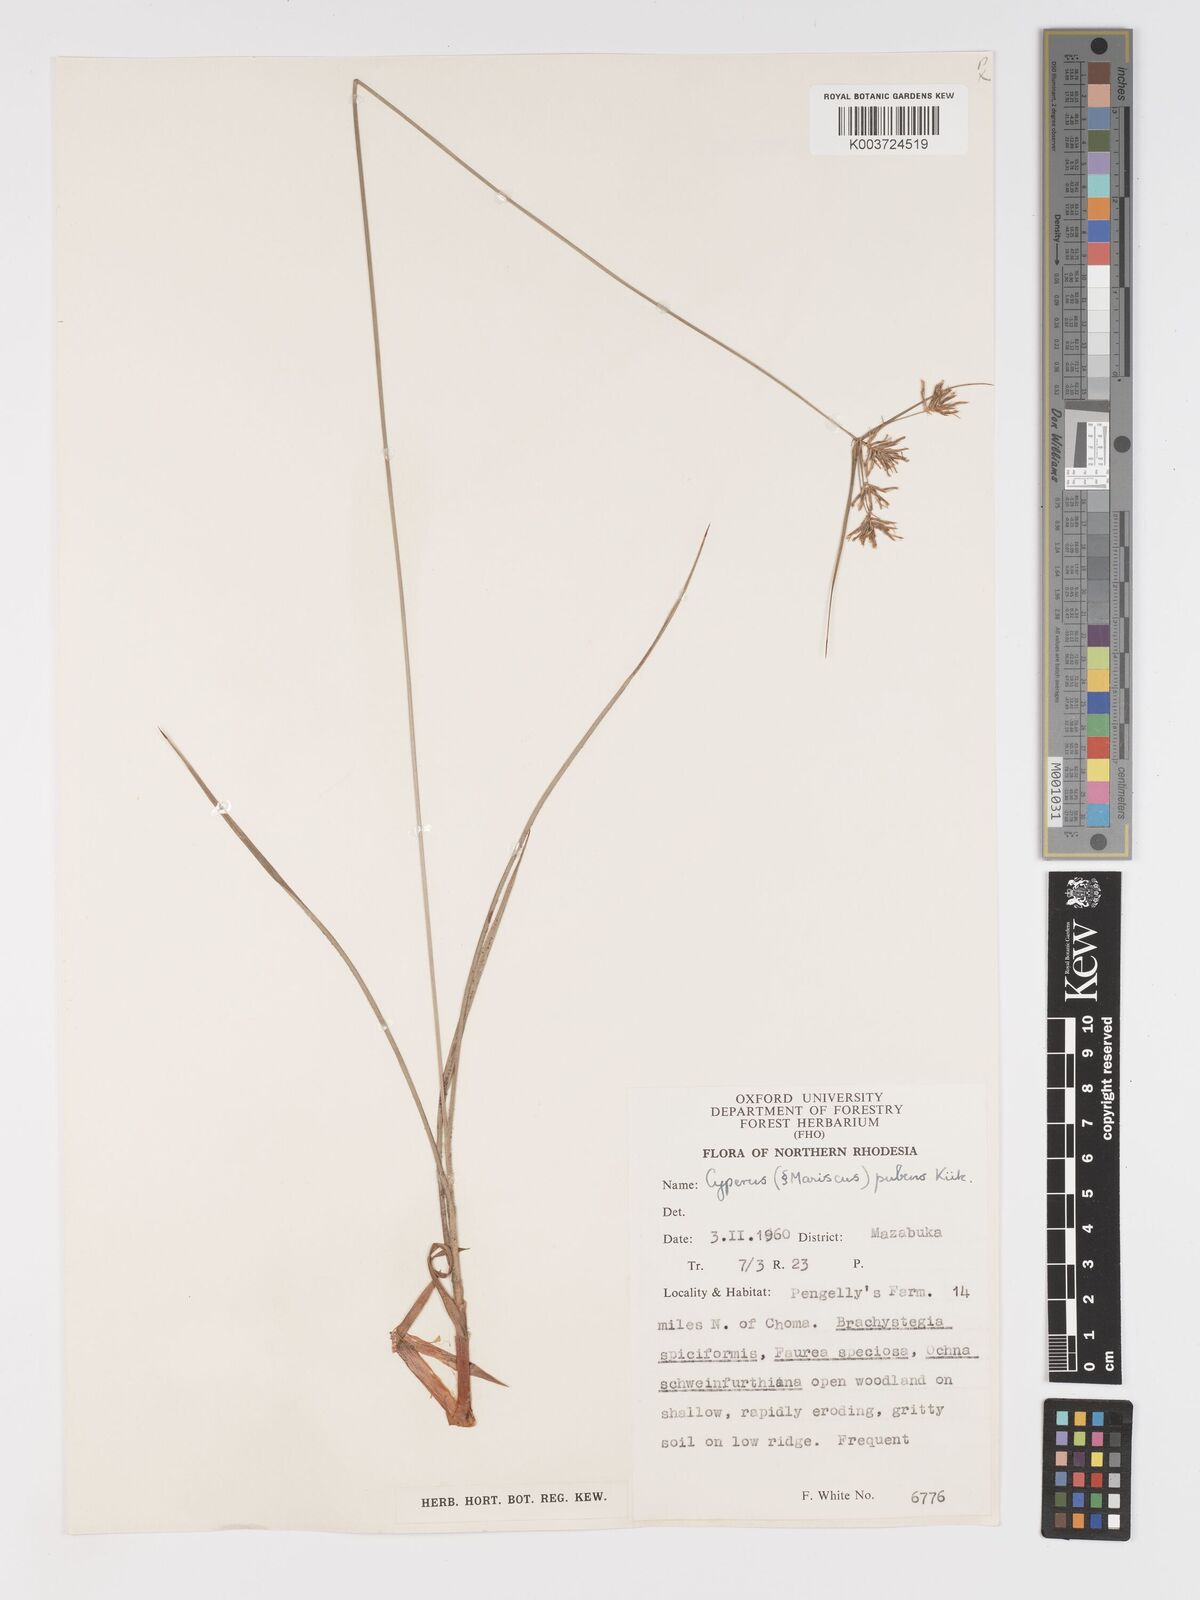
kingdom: Plantae
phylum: Tracheophyta
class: Liliopsida
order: Poales
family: Cyperaceae
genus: Cyperus
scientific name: Cyperus pubens
